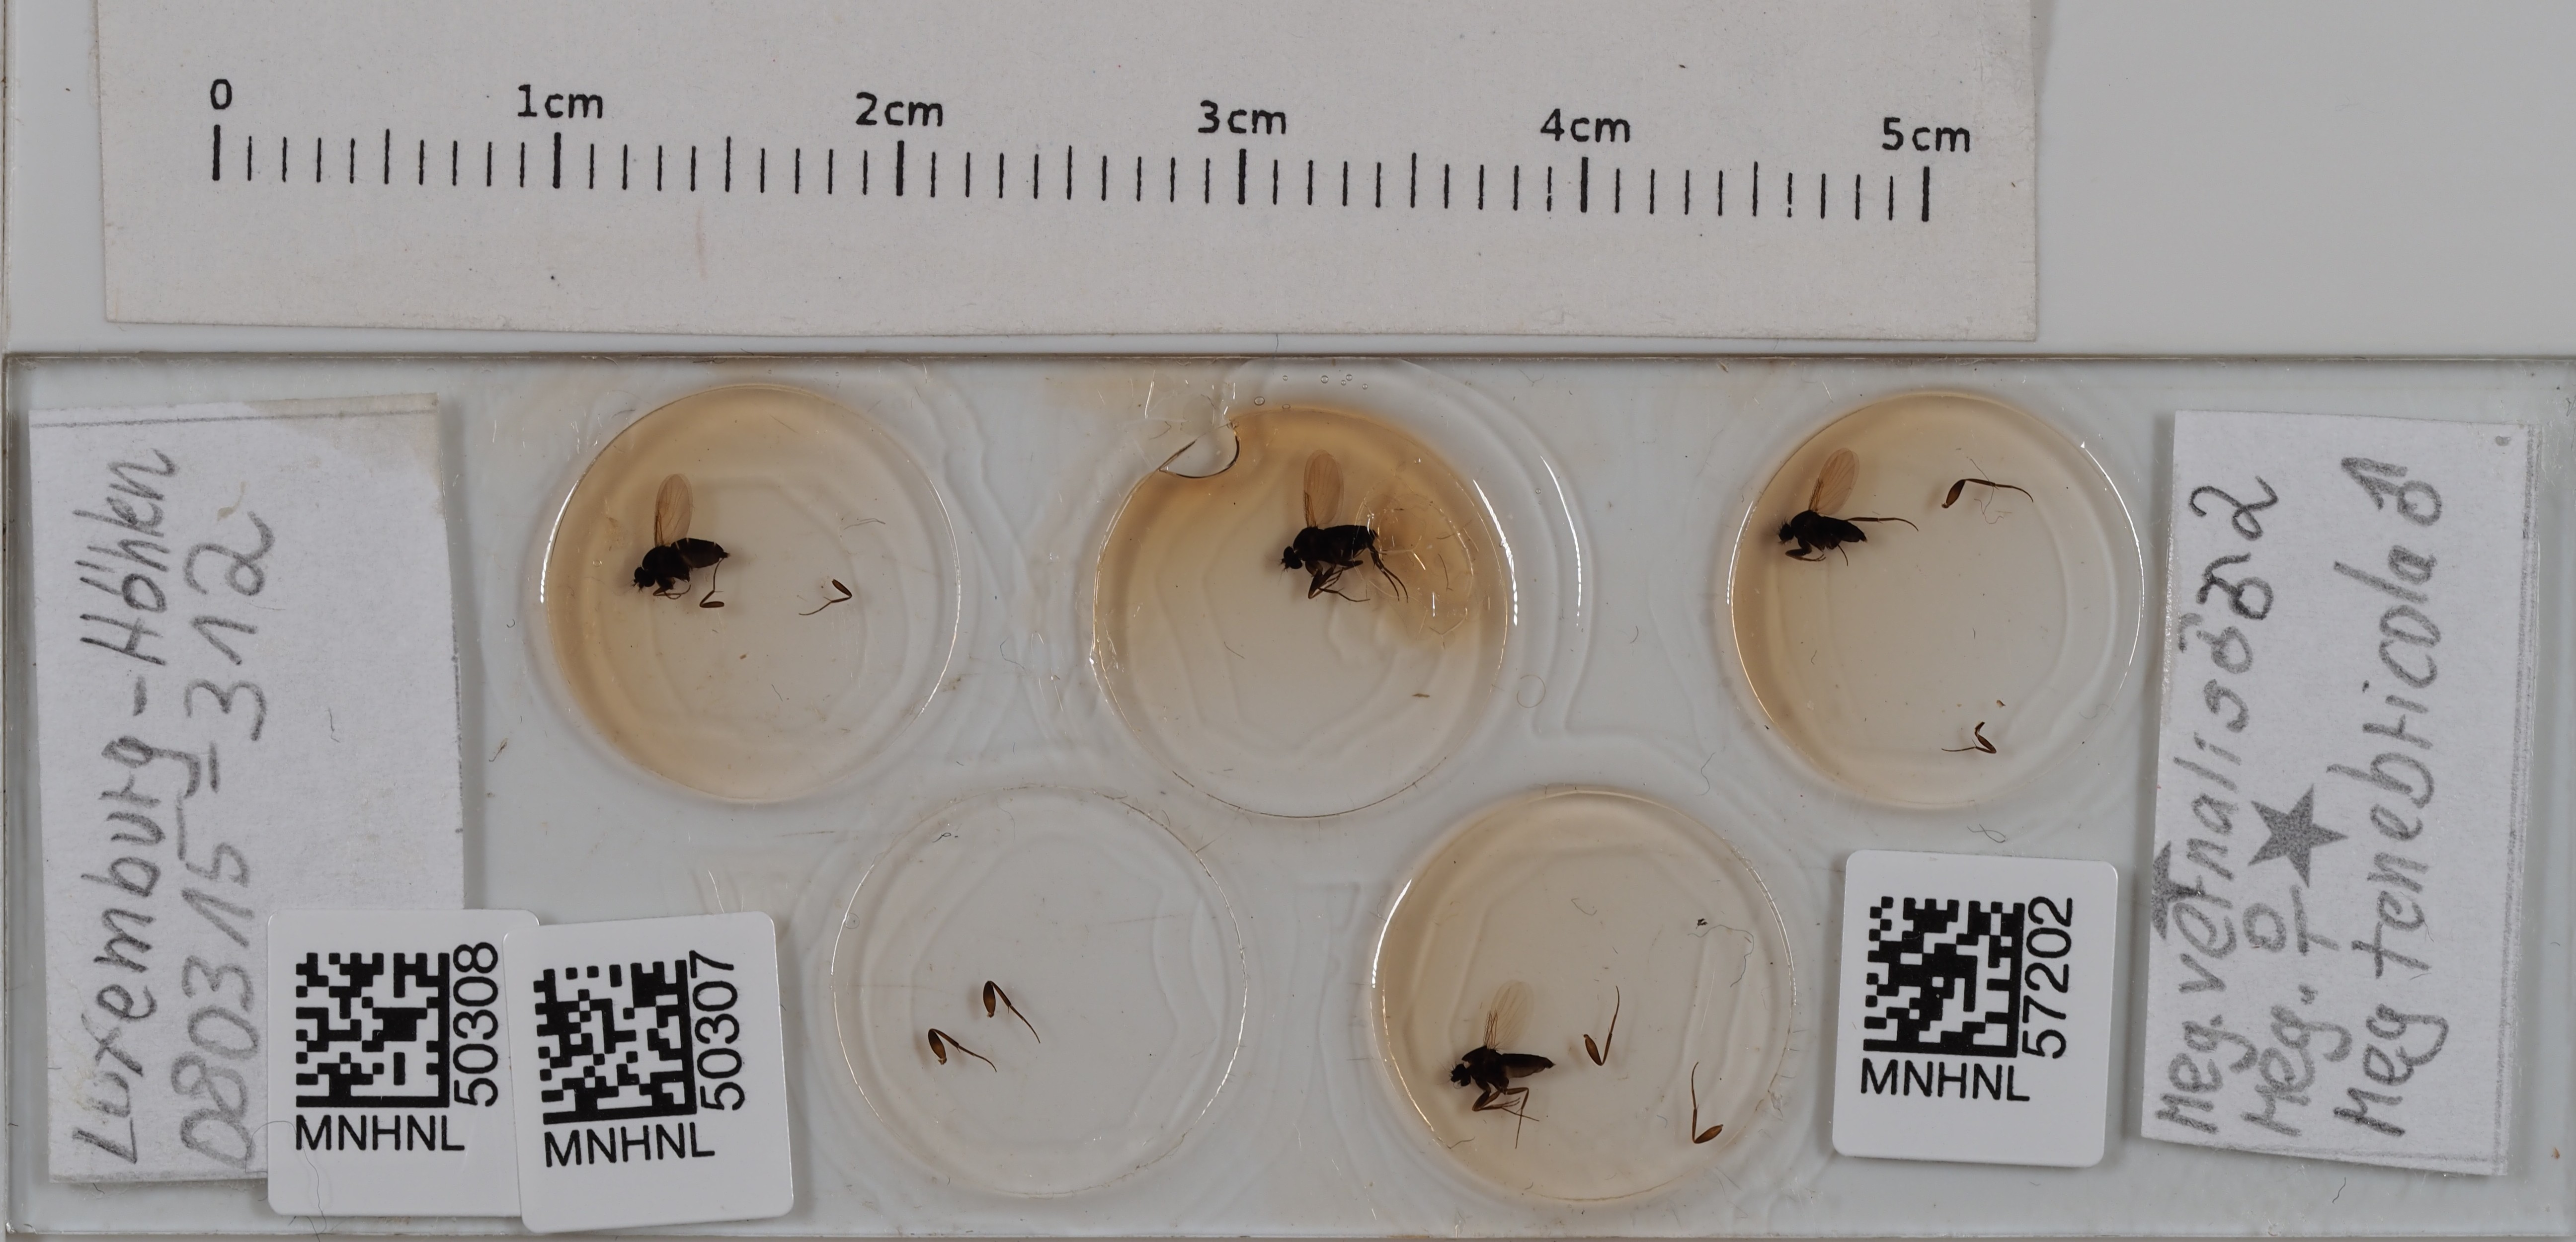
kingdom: Animalia
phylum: Arthropoda
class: Insecta
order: Diptera
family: Phoridae
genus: Megaselia
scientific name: Megaselia tenebricola
